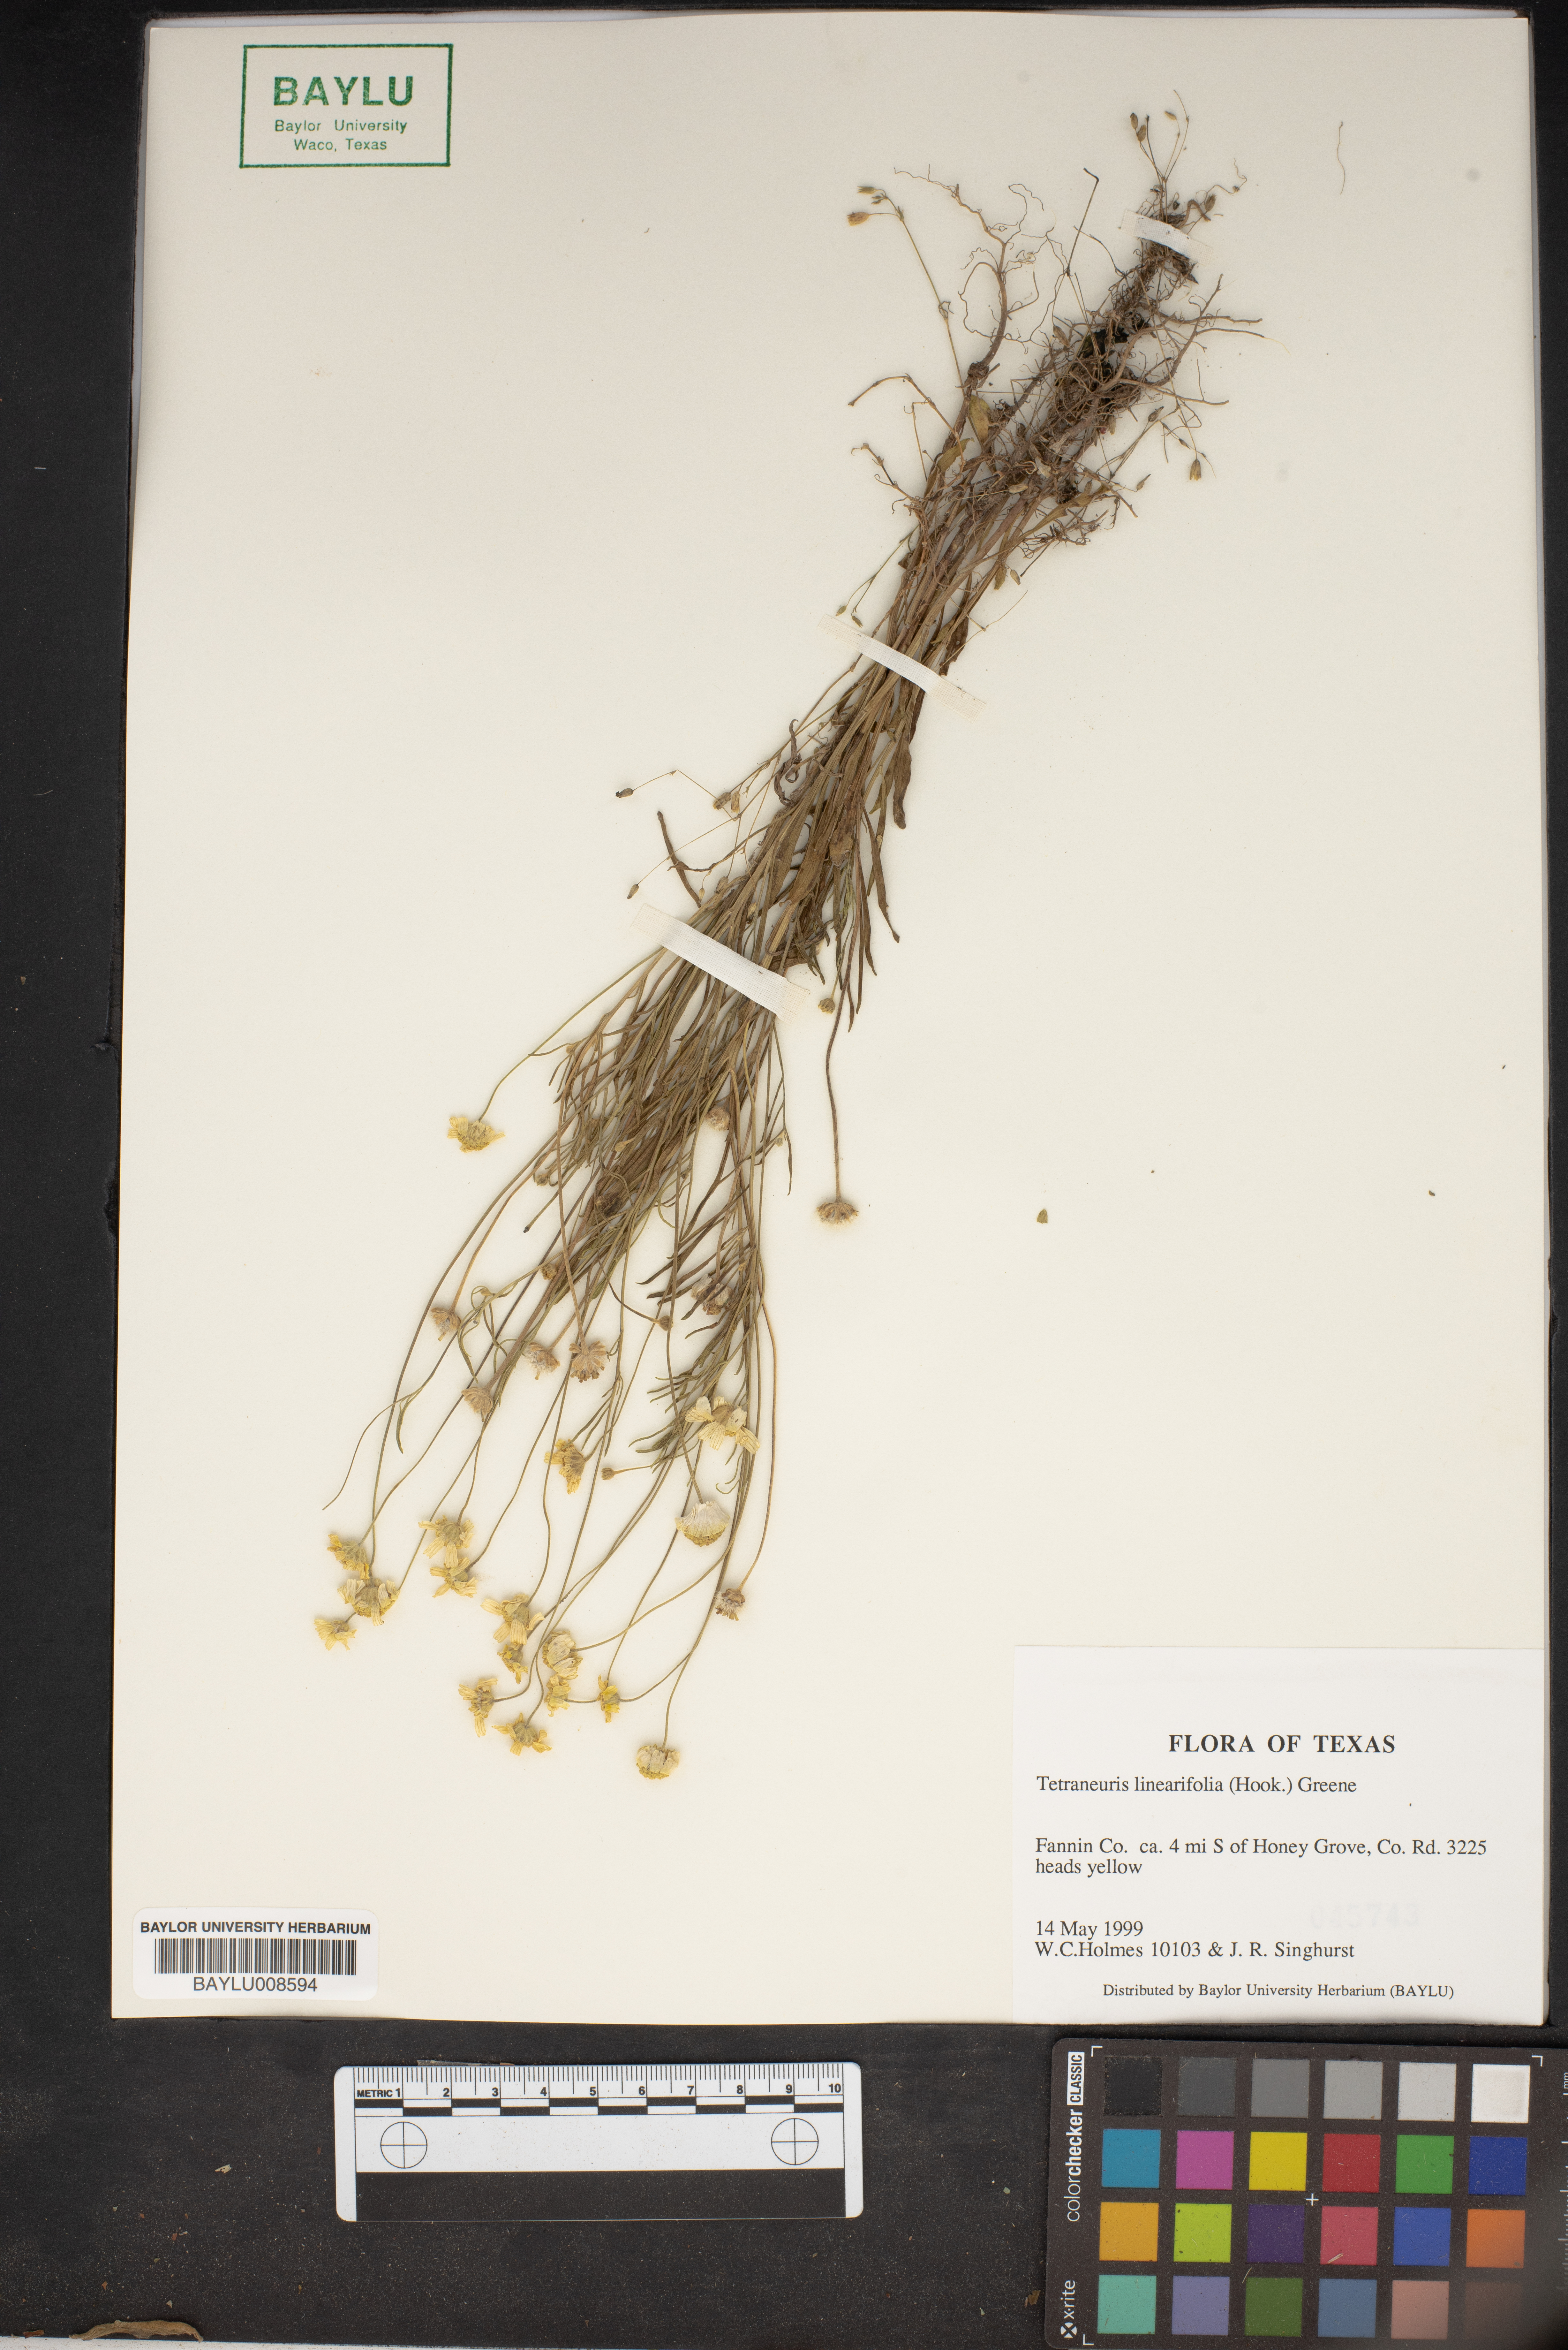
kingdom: Plantae
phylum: Tracheophyta
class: Magnoliopsida
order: Asterales
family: Asteraceae
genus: Tetraneuris
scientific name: Tetraneuris linearifolia
